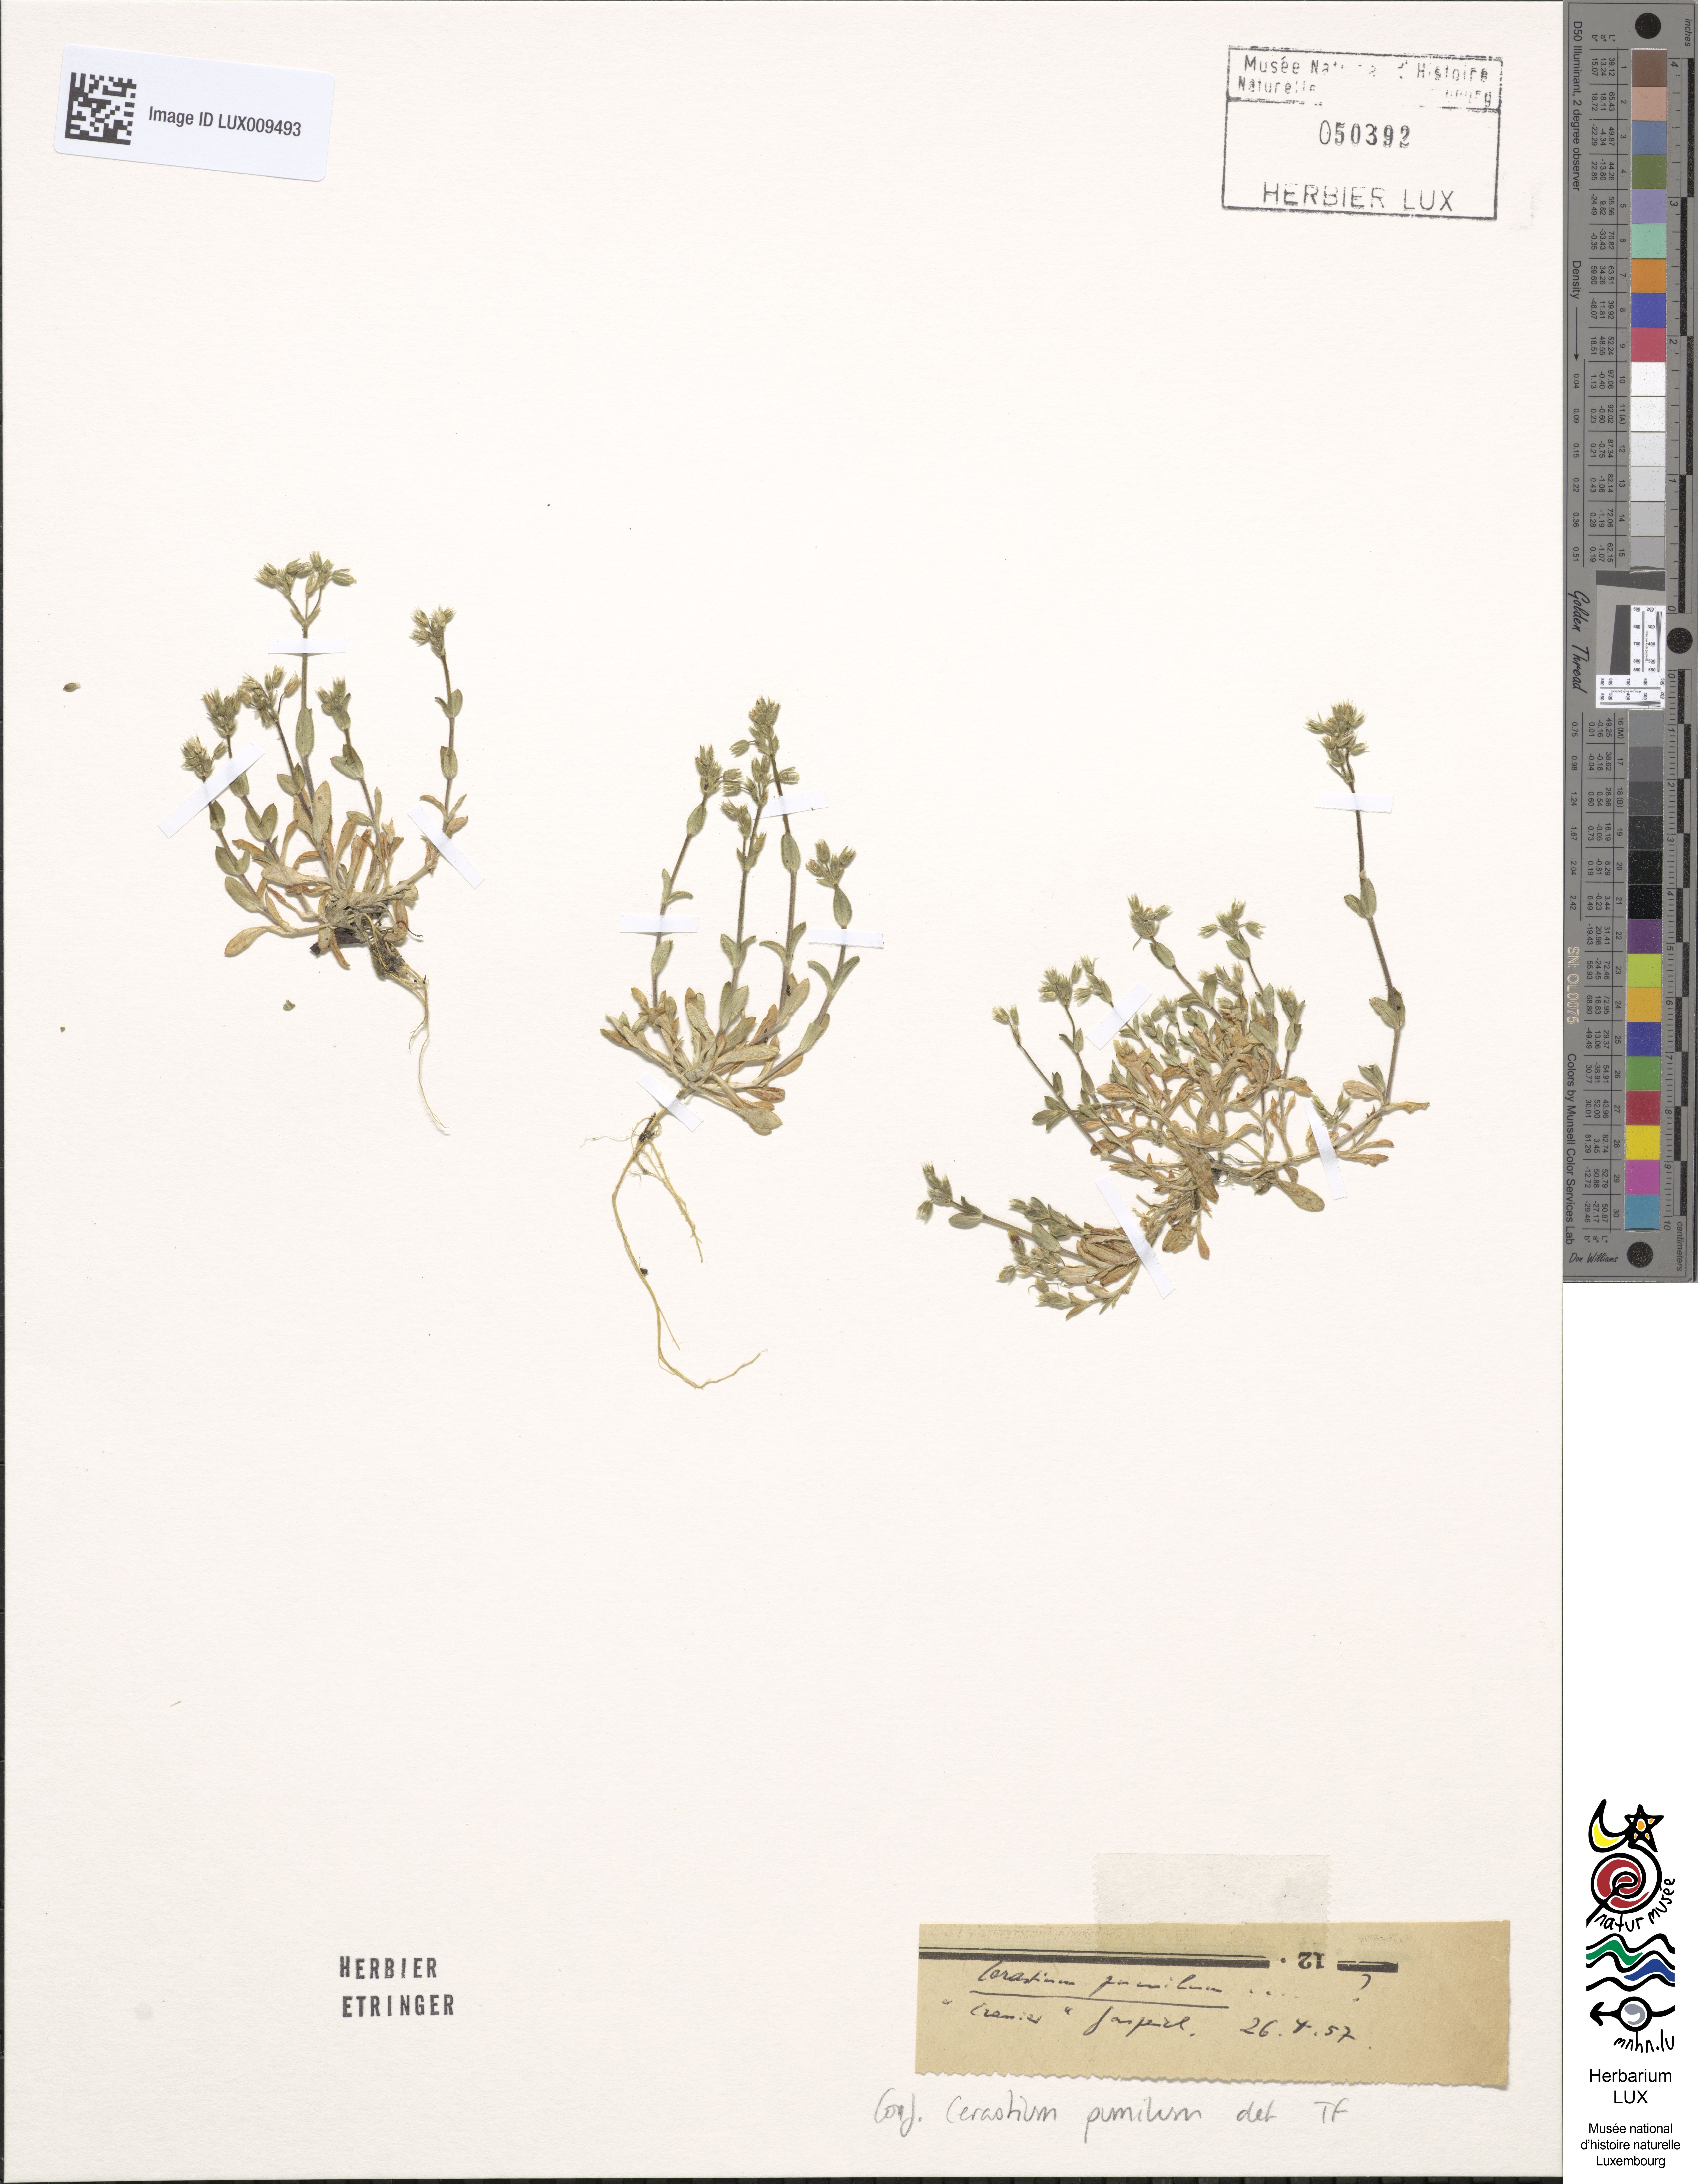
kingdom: Plantae
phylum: Tracheophyta
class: Magnoliopsida
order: Caryophyllales
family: Caryophyllaceae
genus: Cerastium
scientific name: Cerastium pumilum
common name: Dwarf mouse-ear
